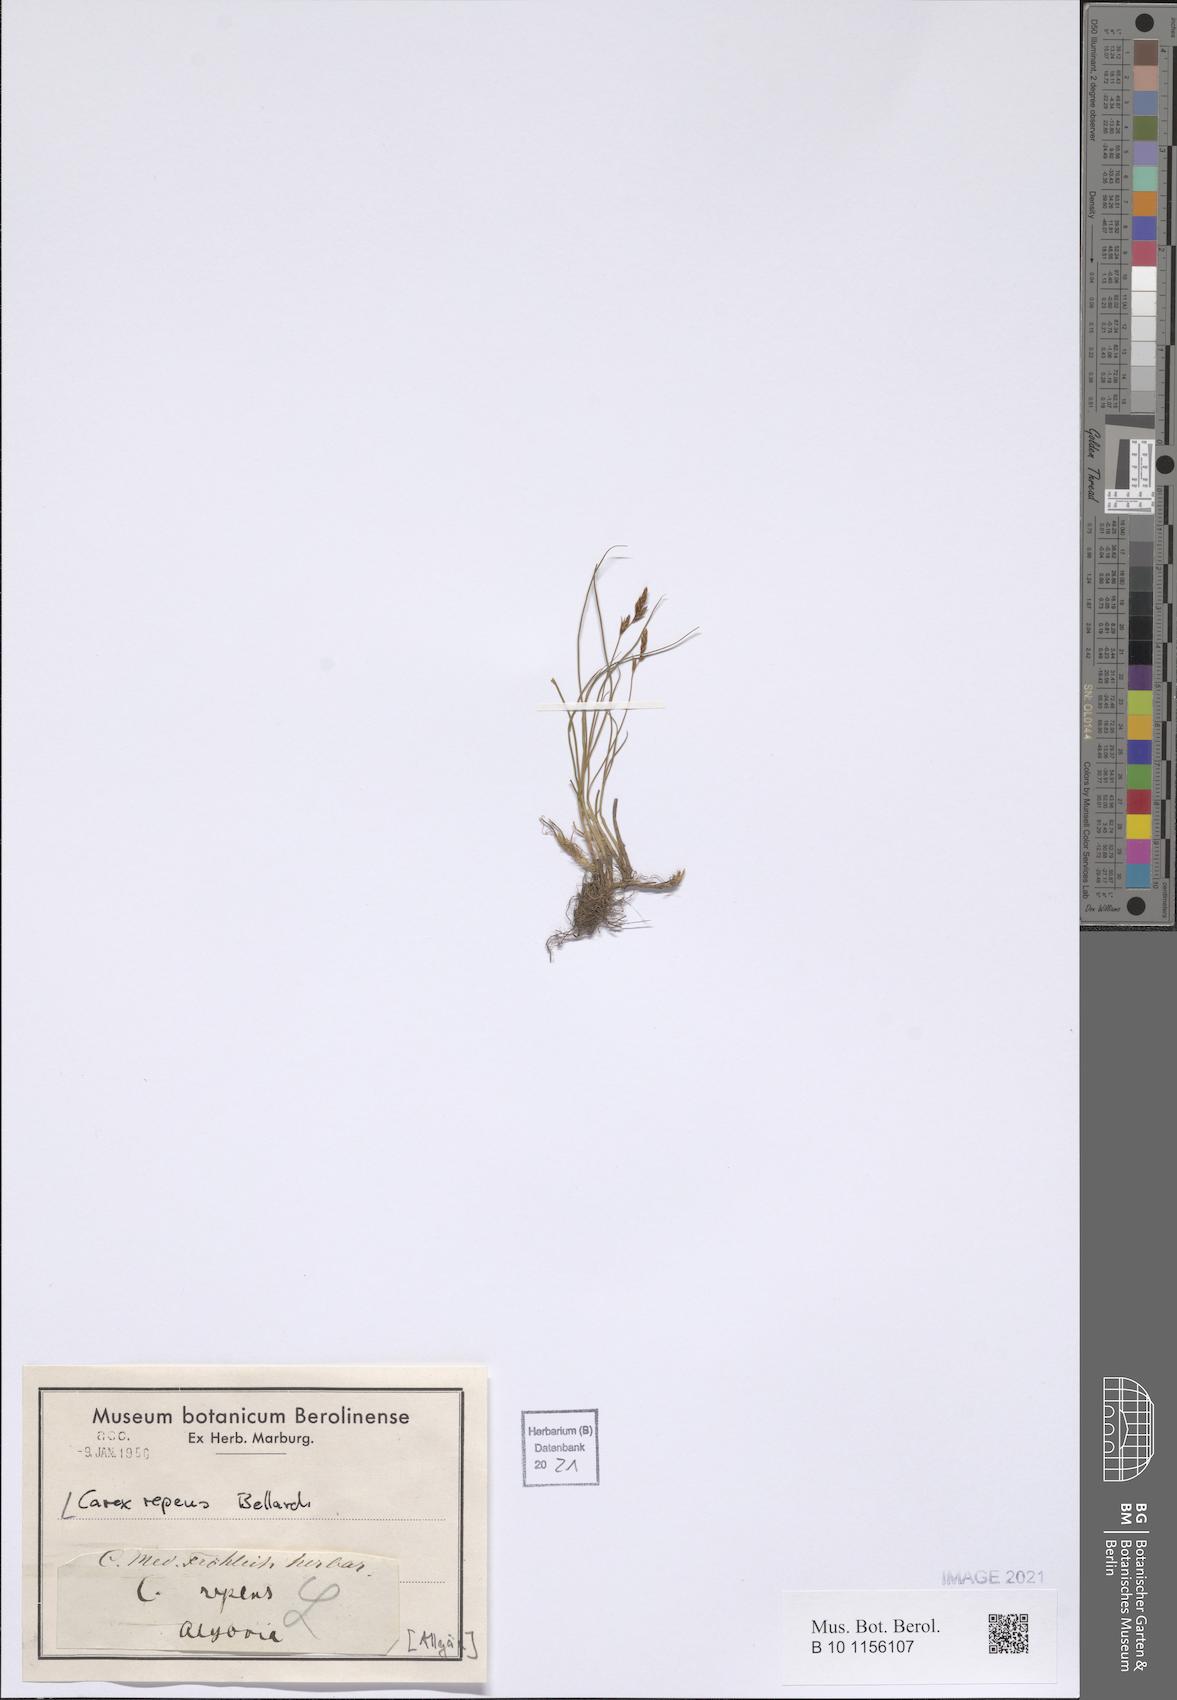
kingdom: Plantae
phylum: Tracheophyta
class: Liliopsida
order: Poales
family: Cyperaceae
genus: Carex
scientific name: Carex repens
